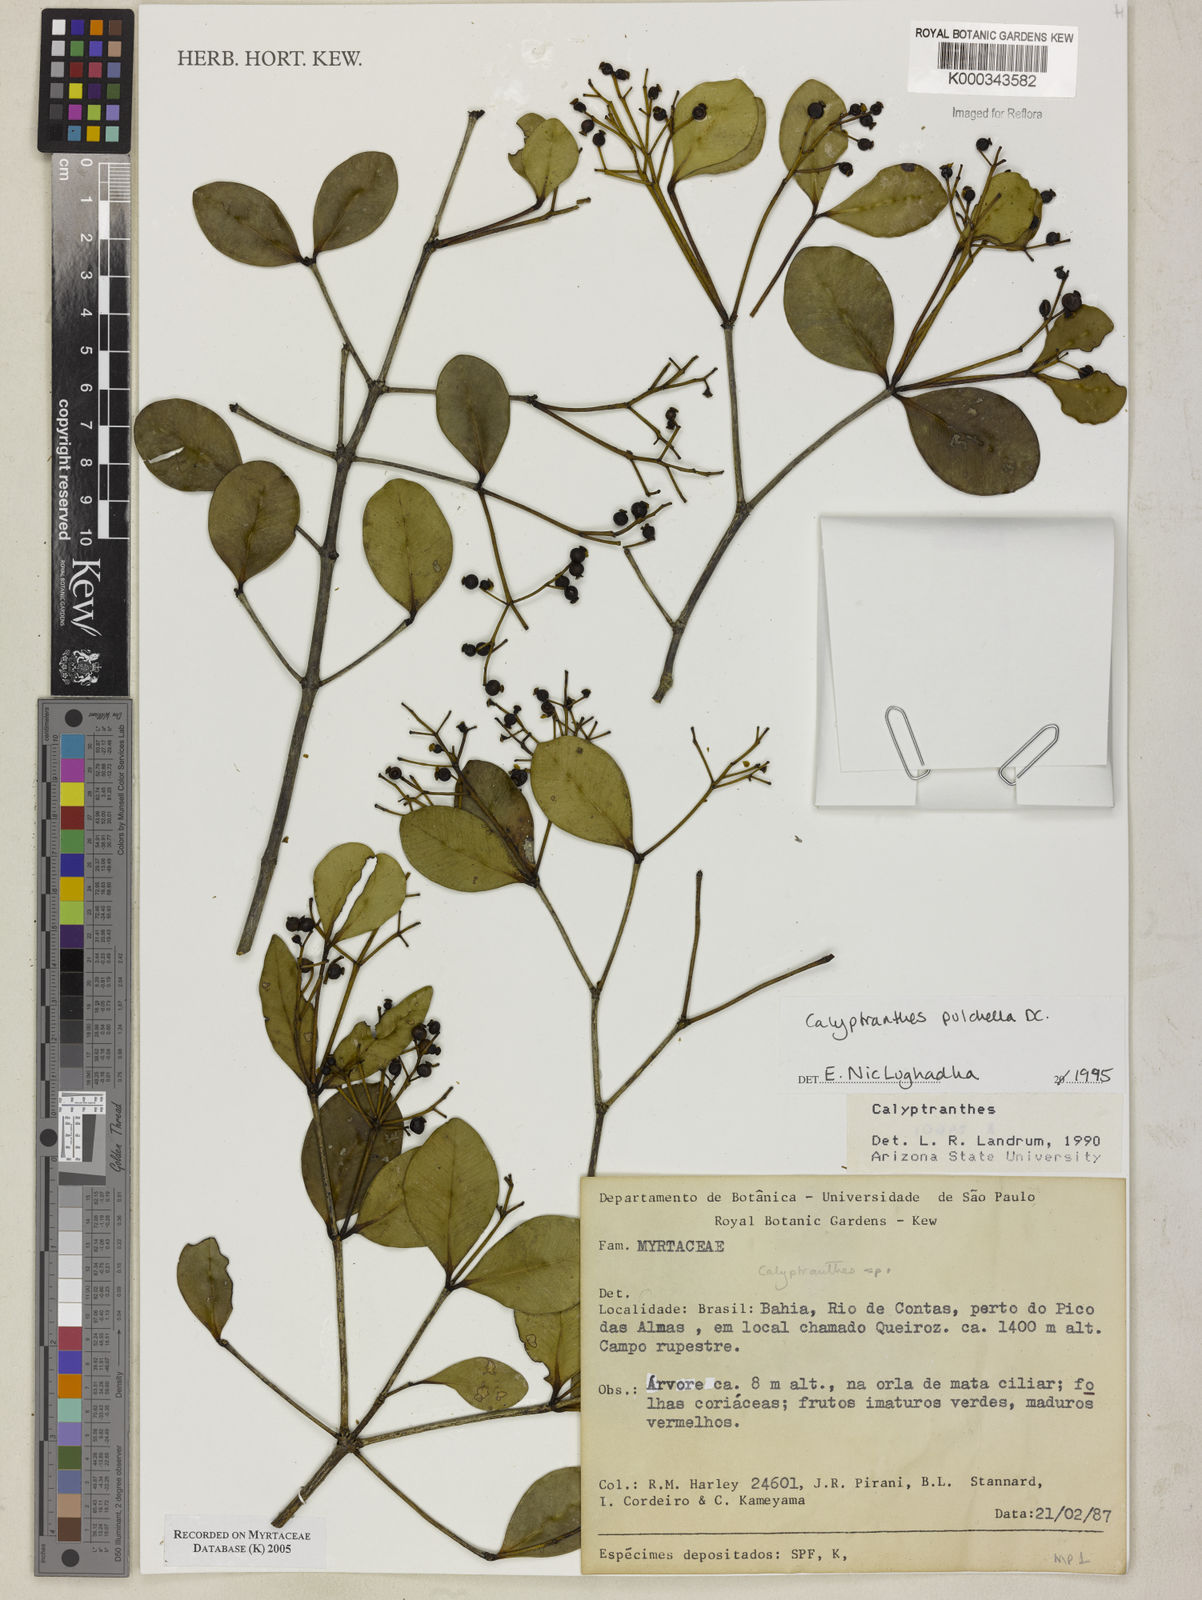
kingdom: Plantae
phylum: Tracheophyta
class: Magnoliopsida
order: Myrtales
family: Myrtaceae
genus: Myrcia
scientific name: Myrcia pulchella
